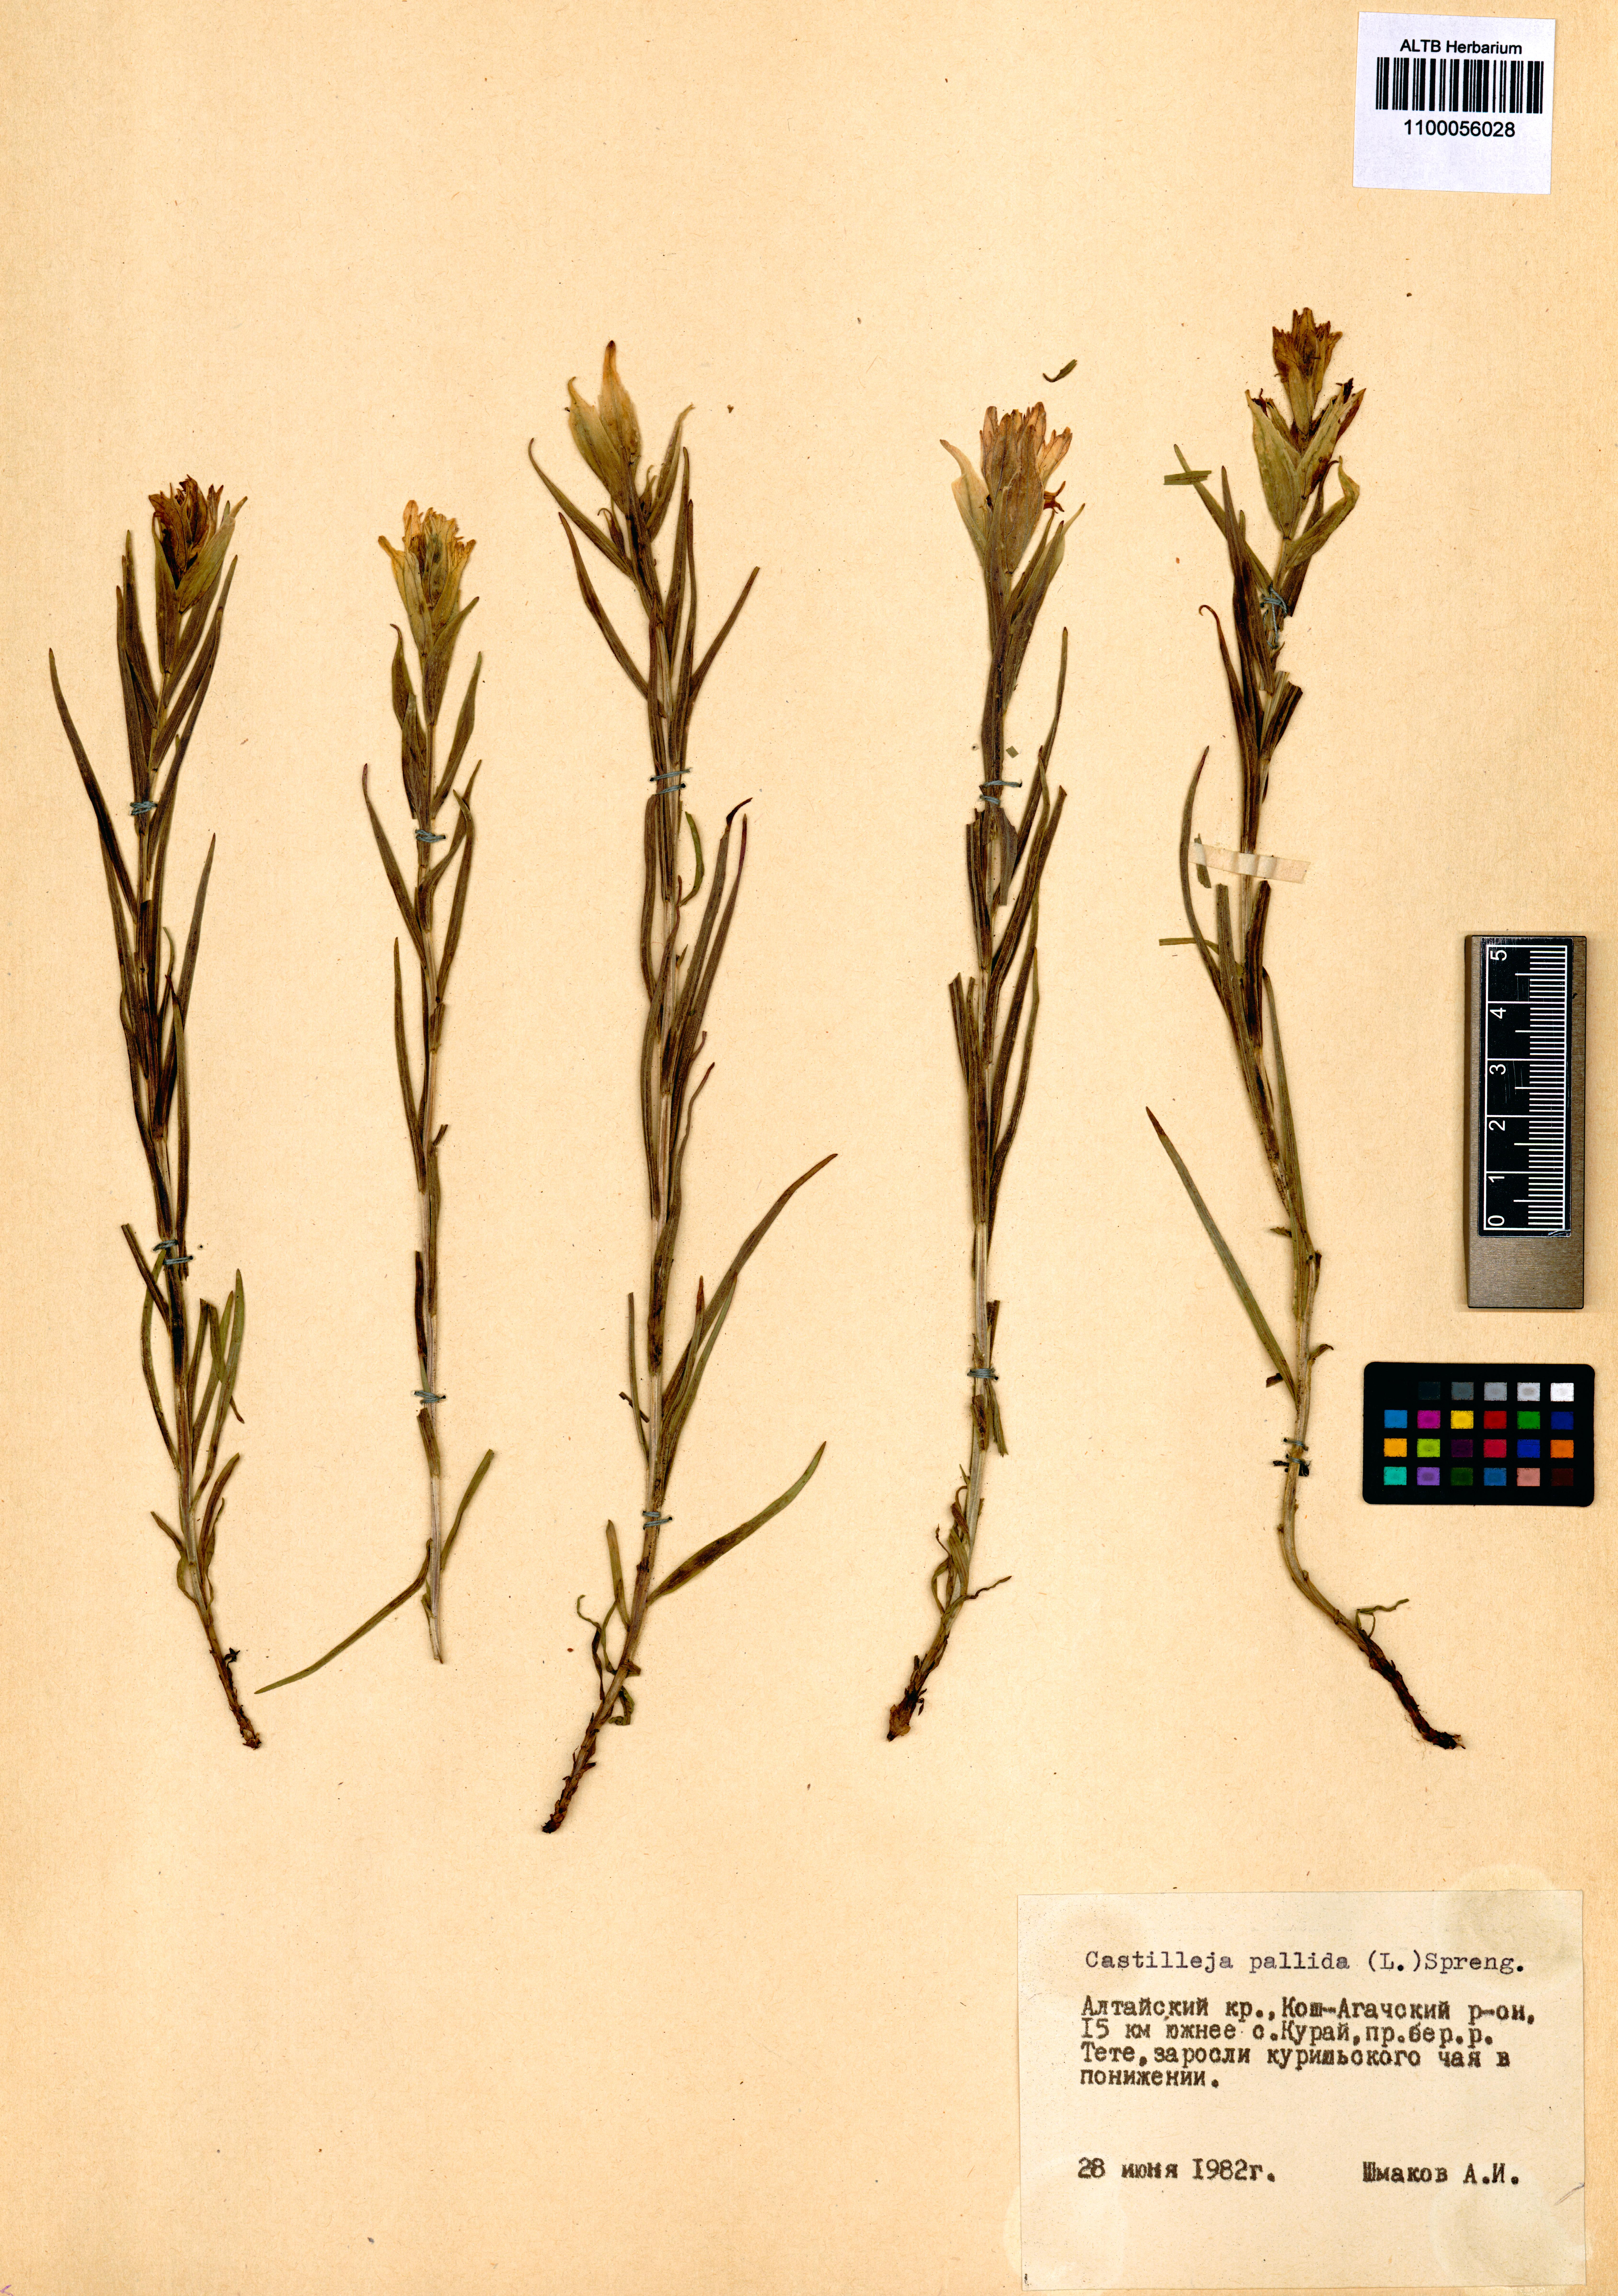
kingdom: Plantae
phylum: Tracheophyta
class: Magnoliopsida
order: Lamiales
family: Orobanchaceae
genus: Castilleja
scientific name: Castilleja pallida
